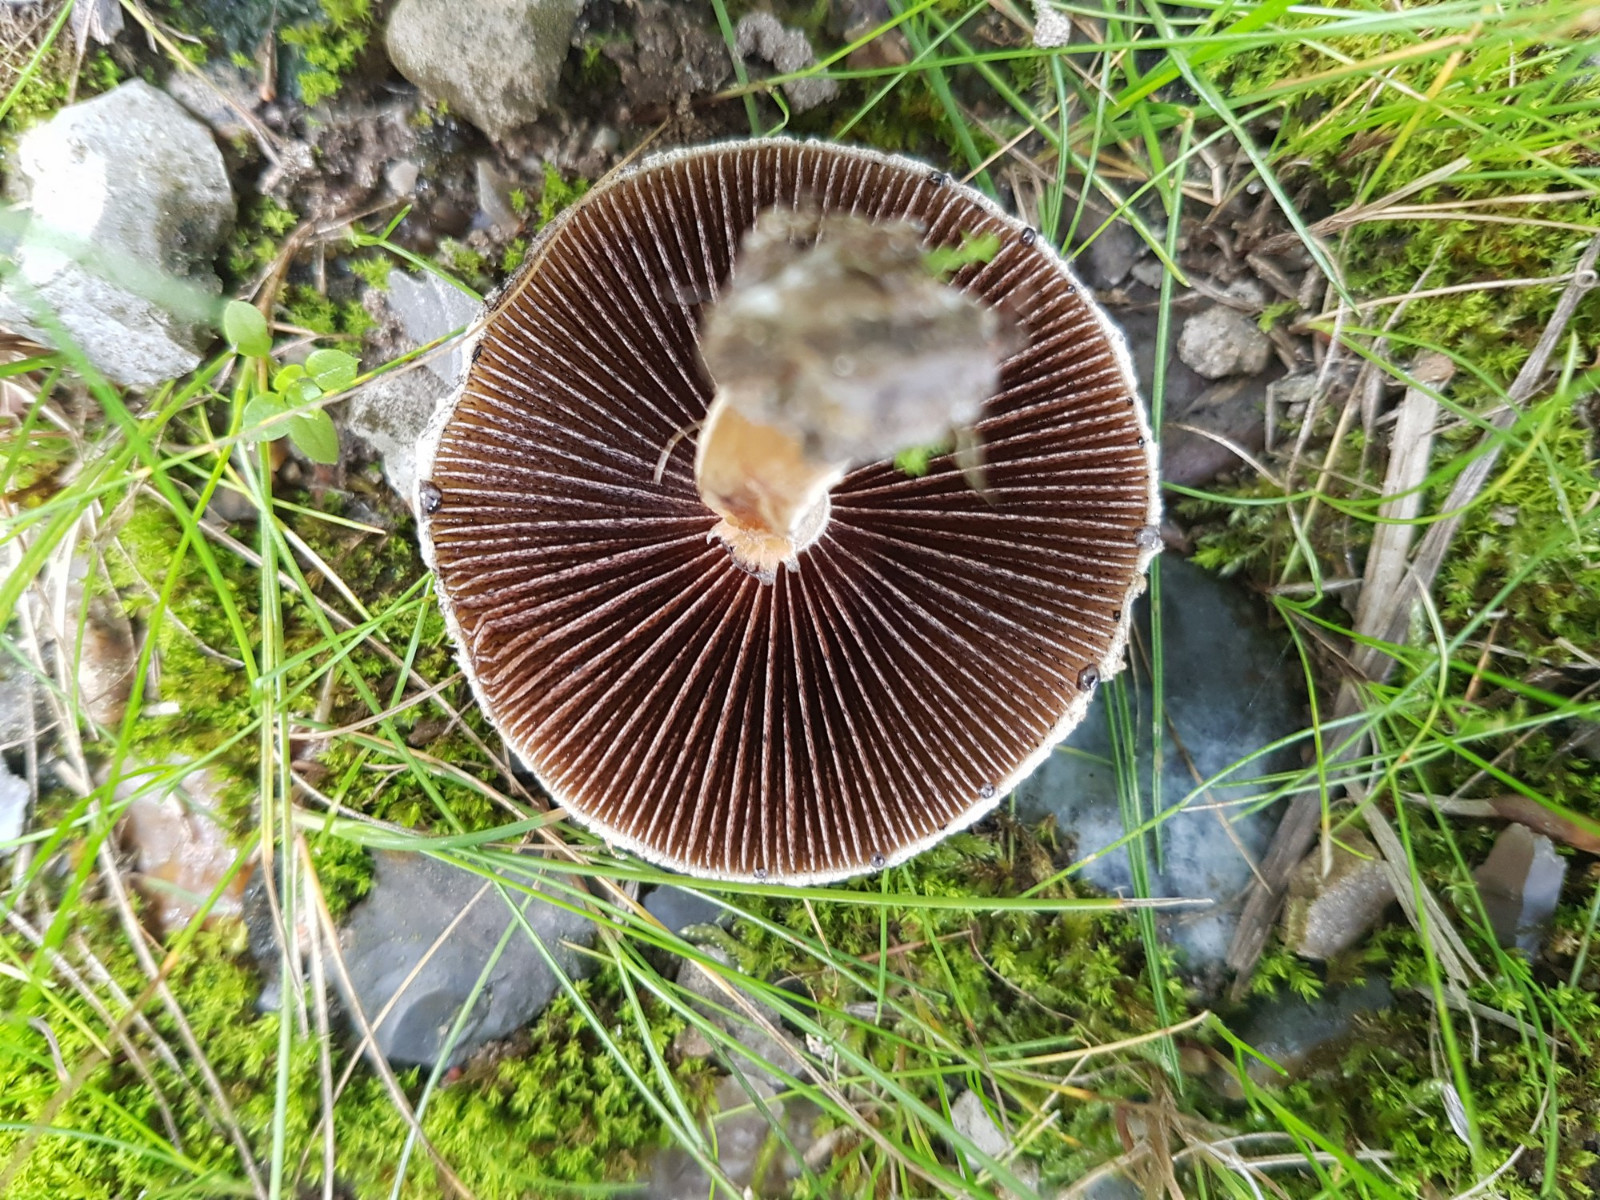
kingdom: Fungi
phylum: Basidiomycota
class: Agaricomycetes
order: Agaricales
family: Psathyrellaceae
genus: Lacrymaria
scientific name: Lacrymaria lacrymabunda
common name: grædende mørkhat
